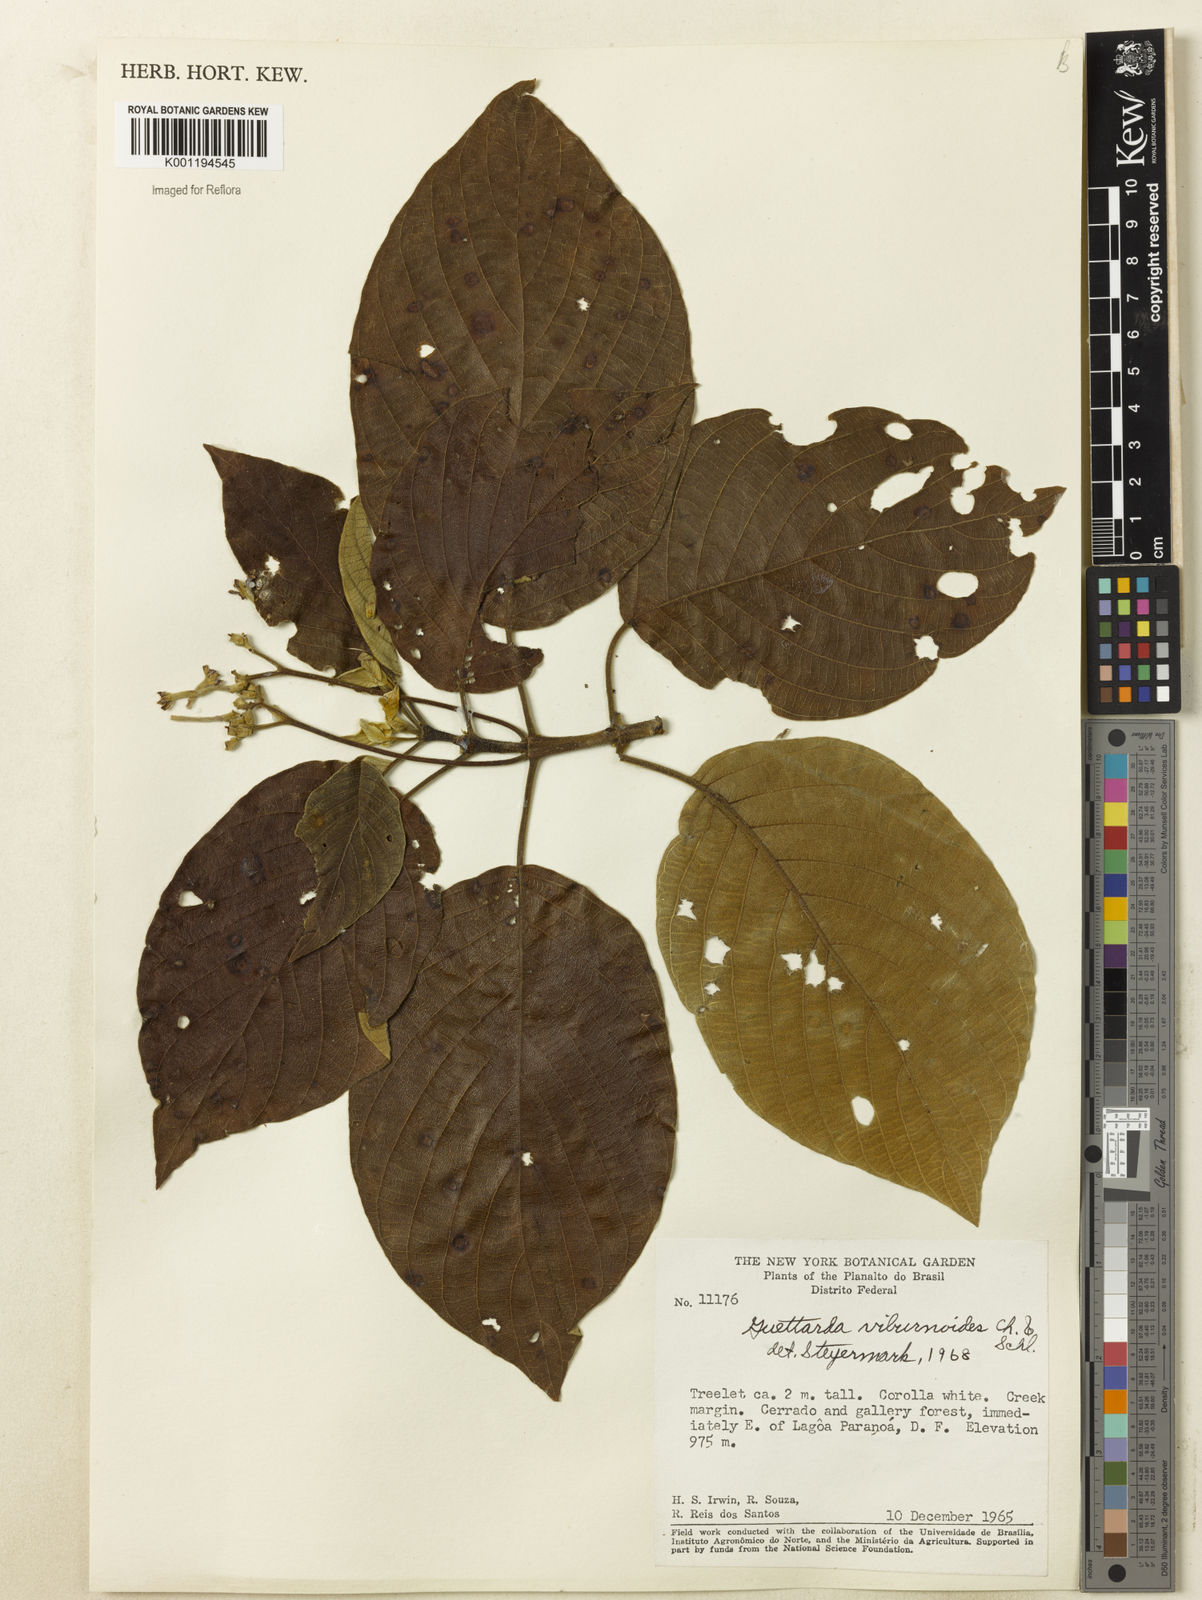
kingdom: Plantae
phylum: Tracheophyta
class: Magnoliopsida
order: Gentianales
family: Rubiaceae
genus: Guettarda
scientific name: Guettarda viburnoides
